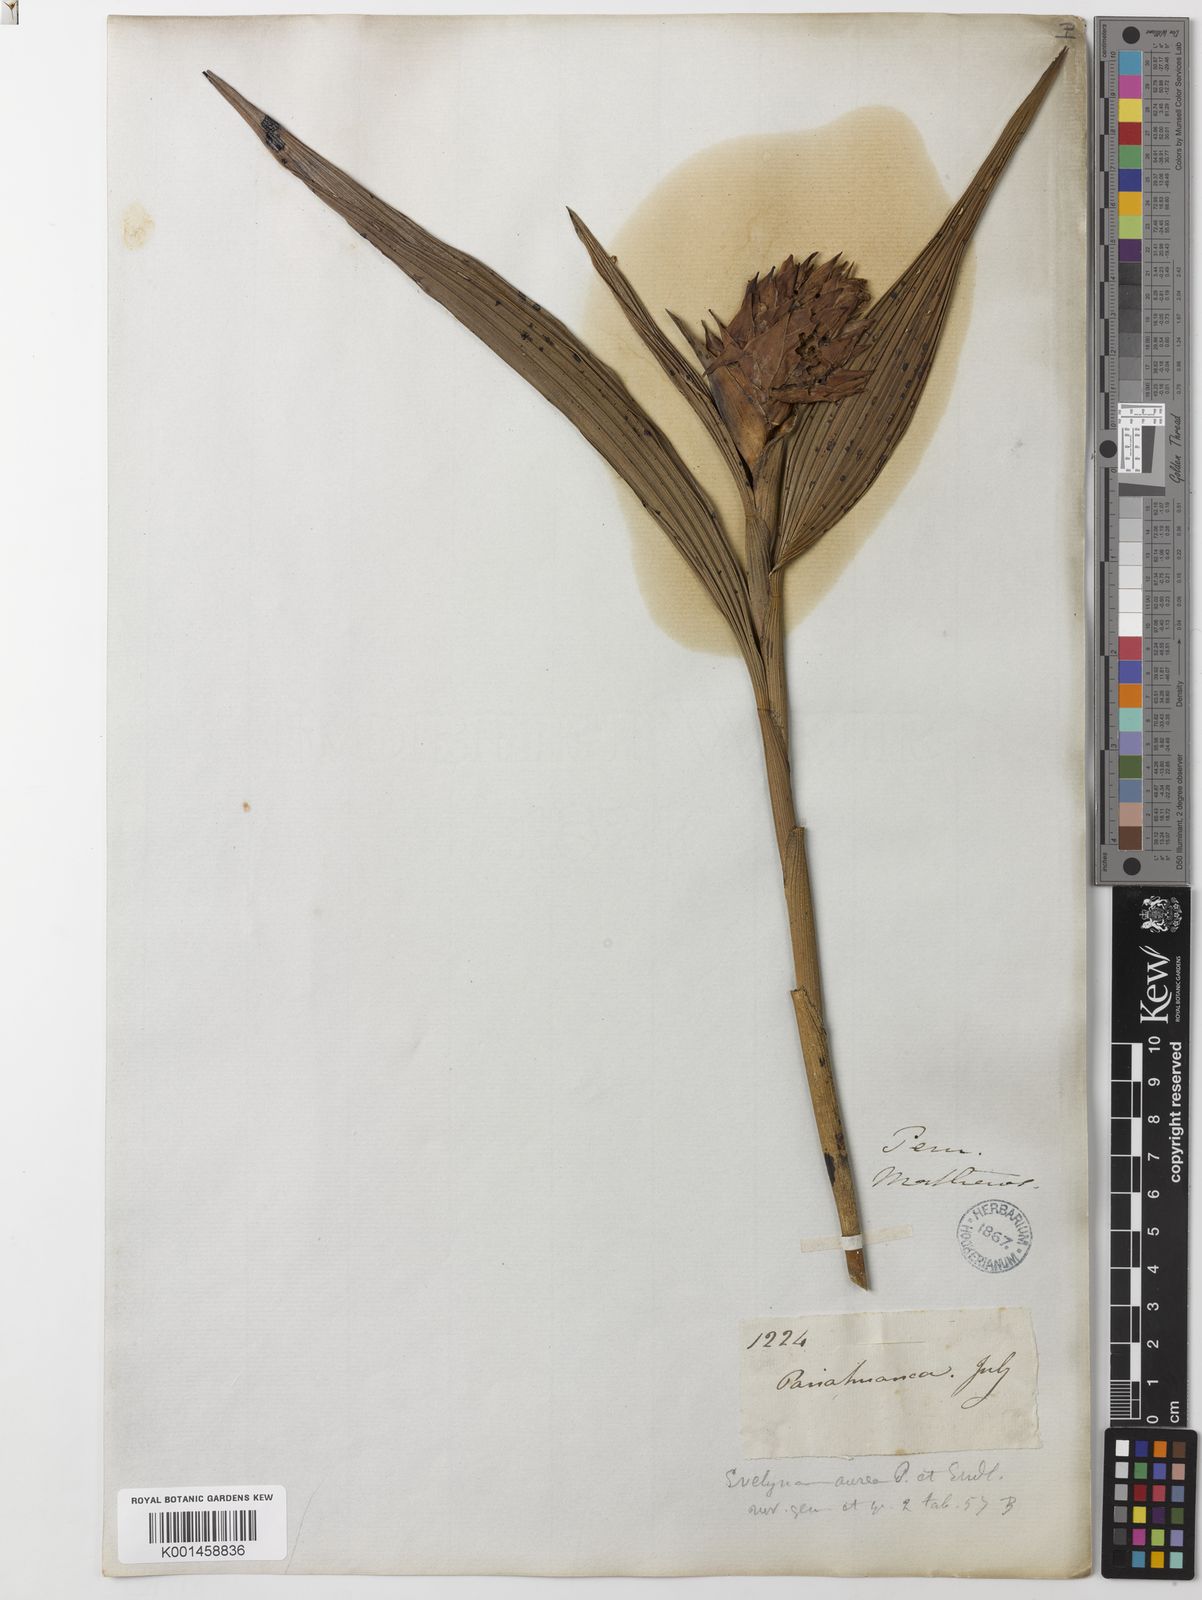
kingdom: Plantae
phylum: Tracheophyta
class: Liliopsida
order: Asparagales
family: Orchidaceae
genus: Elleanthus
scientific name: Elleanthus aureus
